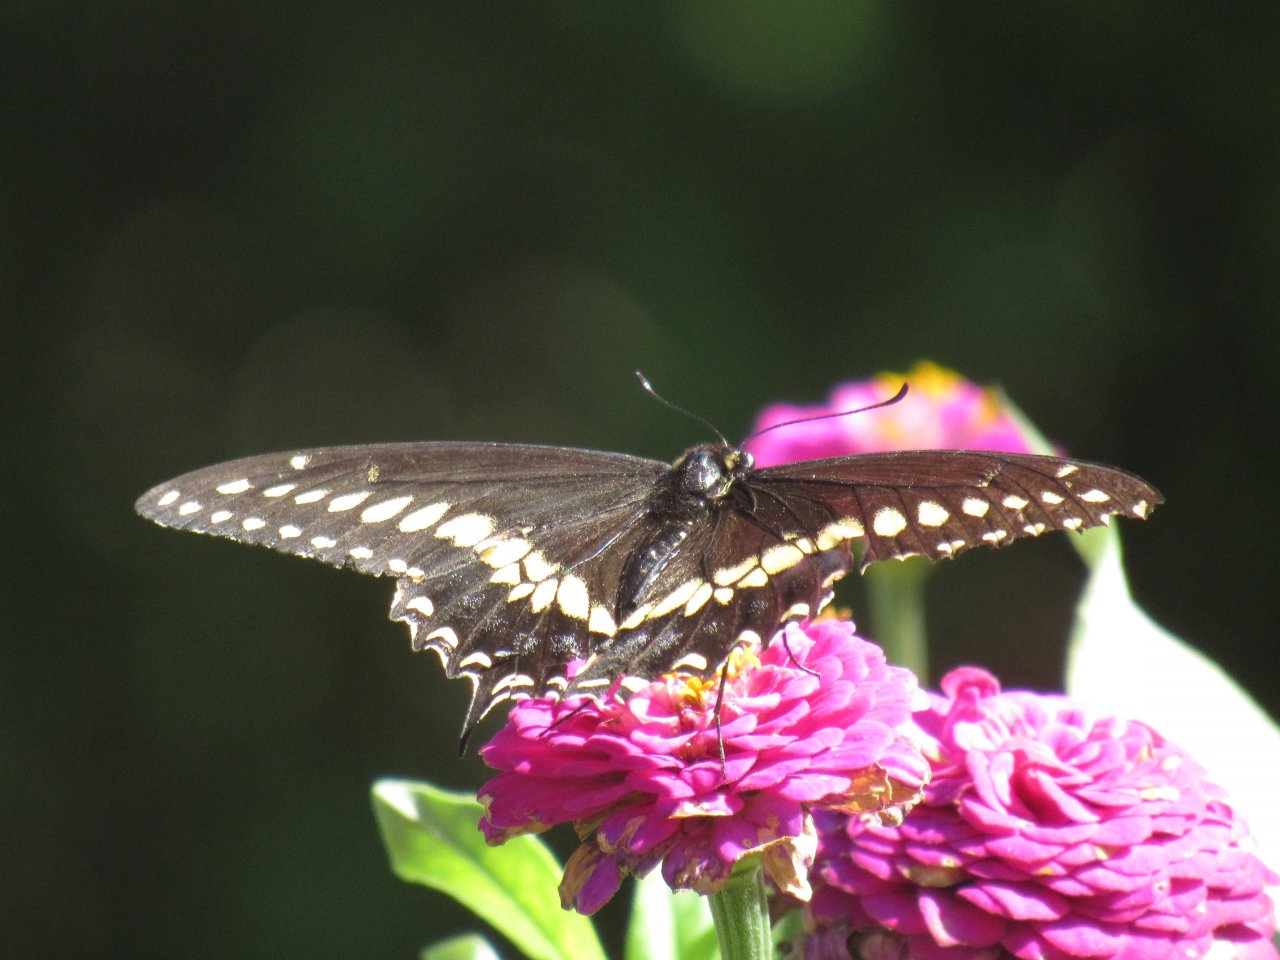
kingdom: Animalia
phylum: Arthropoda
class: Insecta
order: Lepidoptera
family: Papilionidae
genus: Papilio
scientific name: Papilio polyxenes
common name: Black Swallowtail
